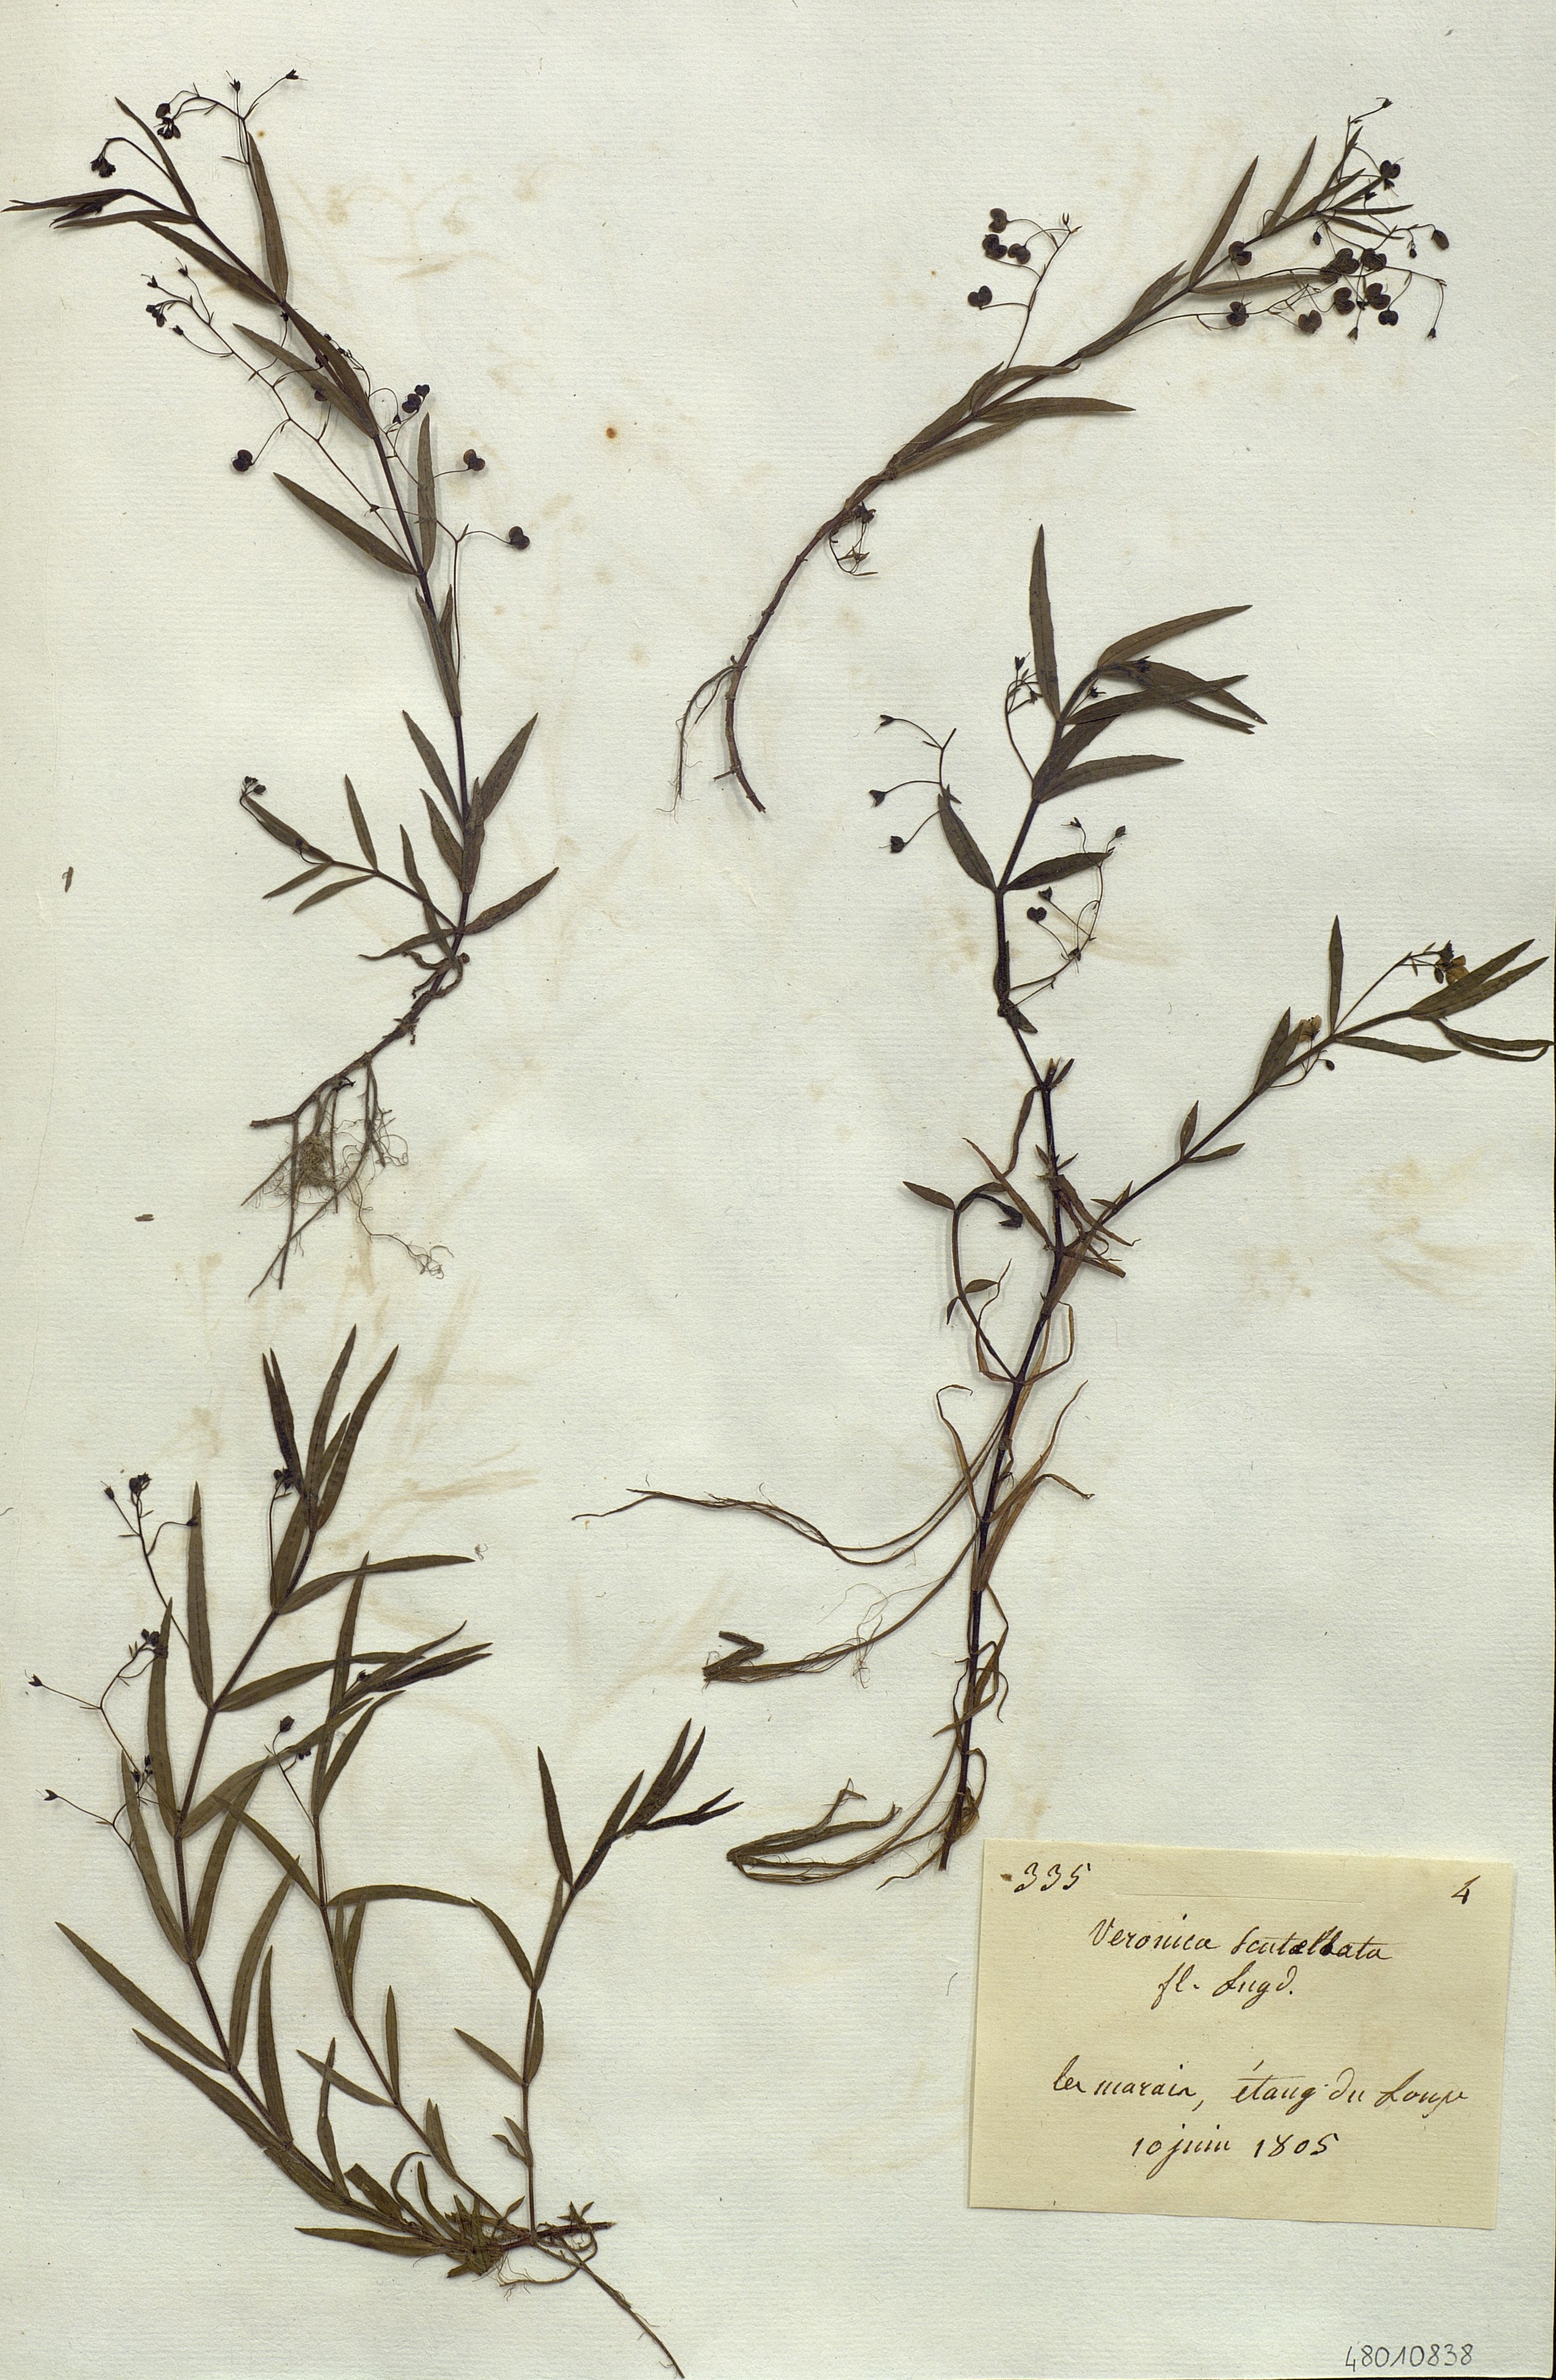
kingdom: Plantae
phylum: Tracheophyta
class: Magnoliopsida
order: Lamiales
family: Plantaginaceae
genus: Veronica
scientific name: Veronica scutellata
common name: Marsh speedwell
